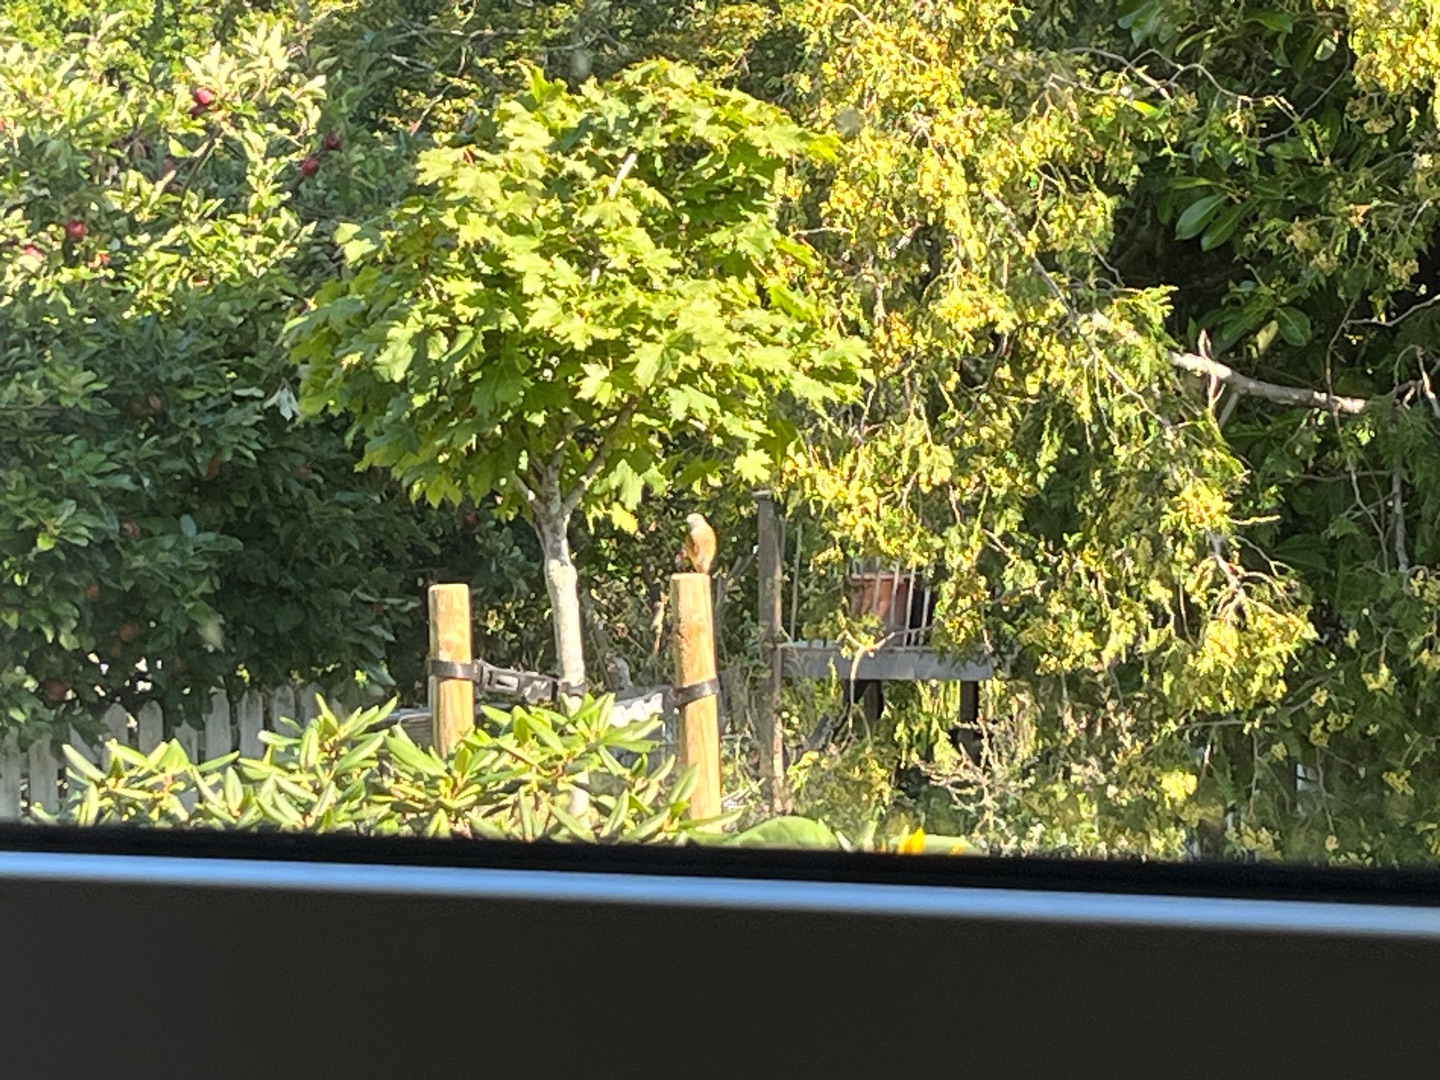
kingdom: Animalia
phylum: Chordata
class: Aves
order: Passeriformes
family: Muscicapidae
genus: Phoenicurus
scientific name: Phoenicurus phoenicurus
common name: Rødstjert
